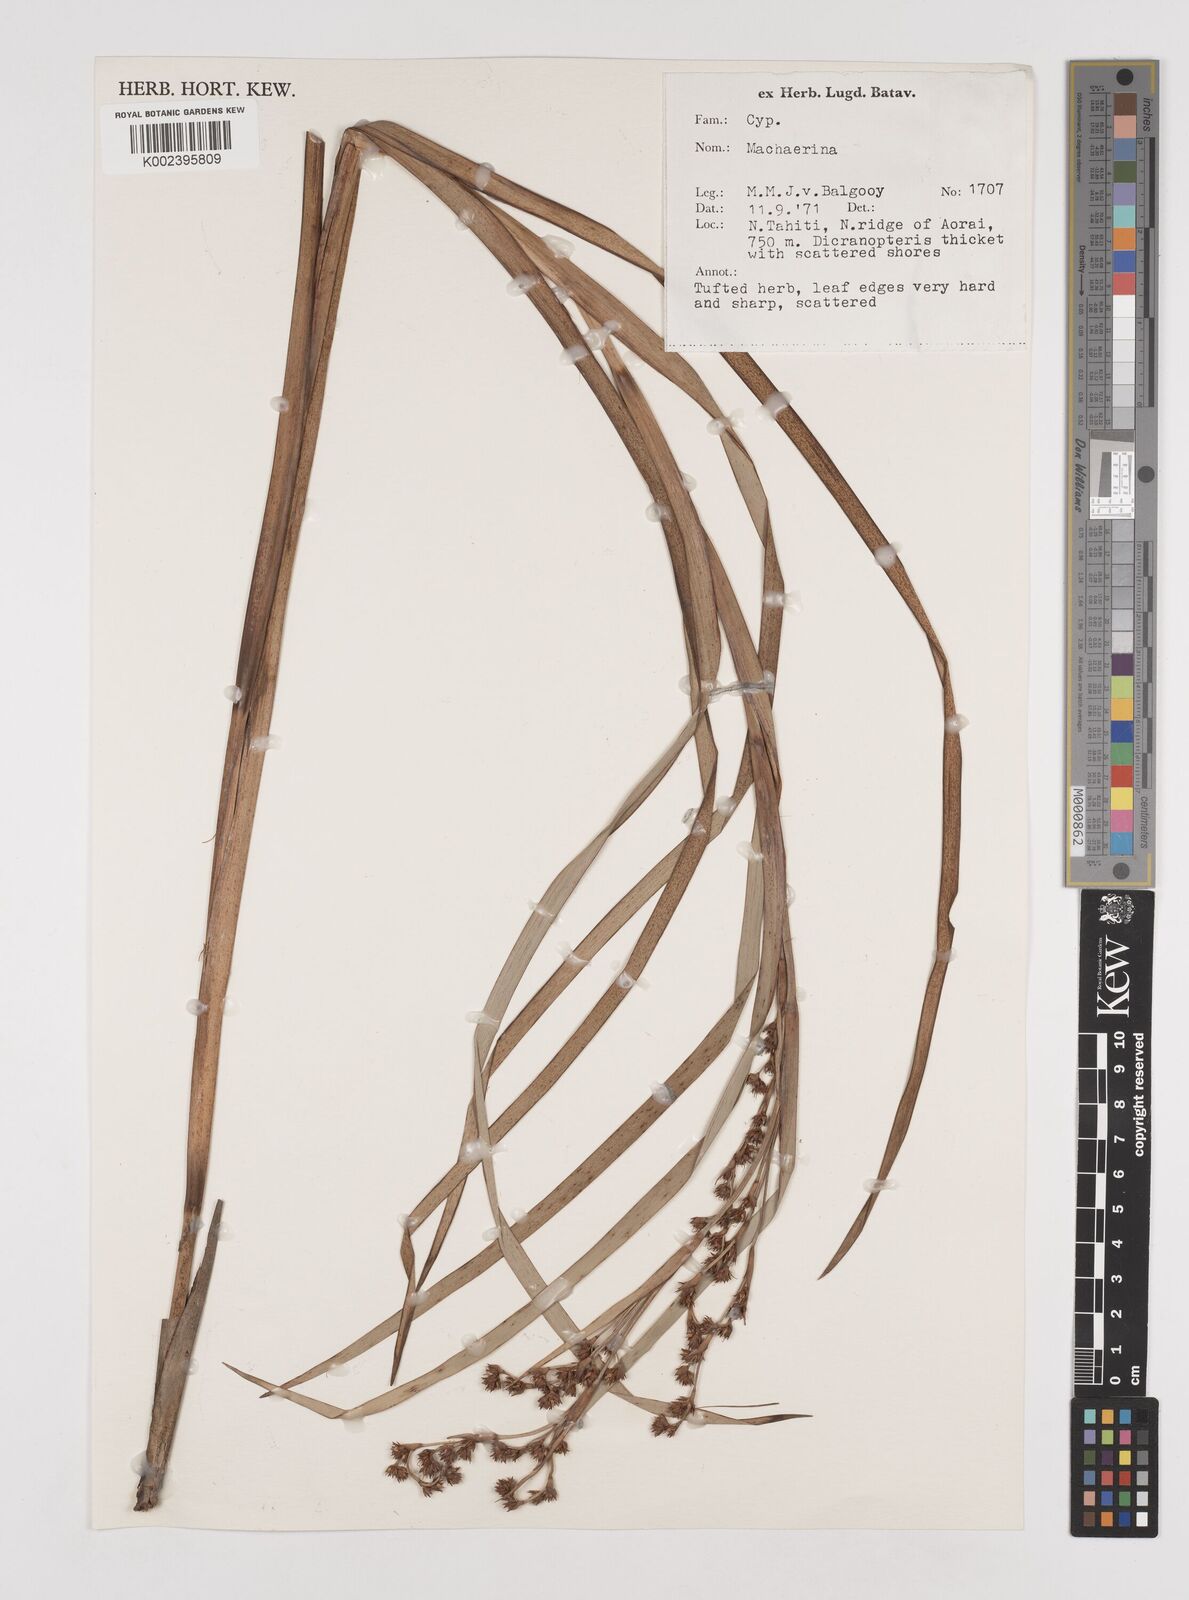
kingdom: Plantae
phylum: Tracheophyta
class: Liliopsida
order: Poales
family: Cyperaceae
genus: Machaerina
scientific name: Machaerina
